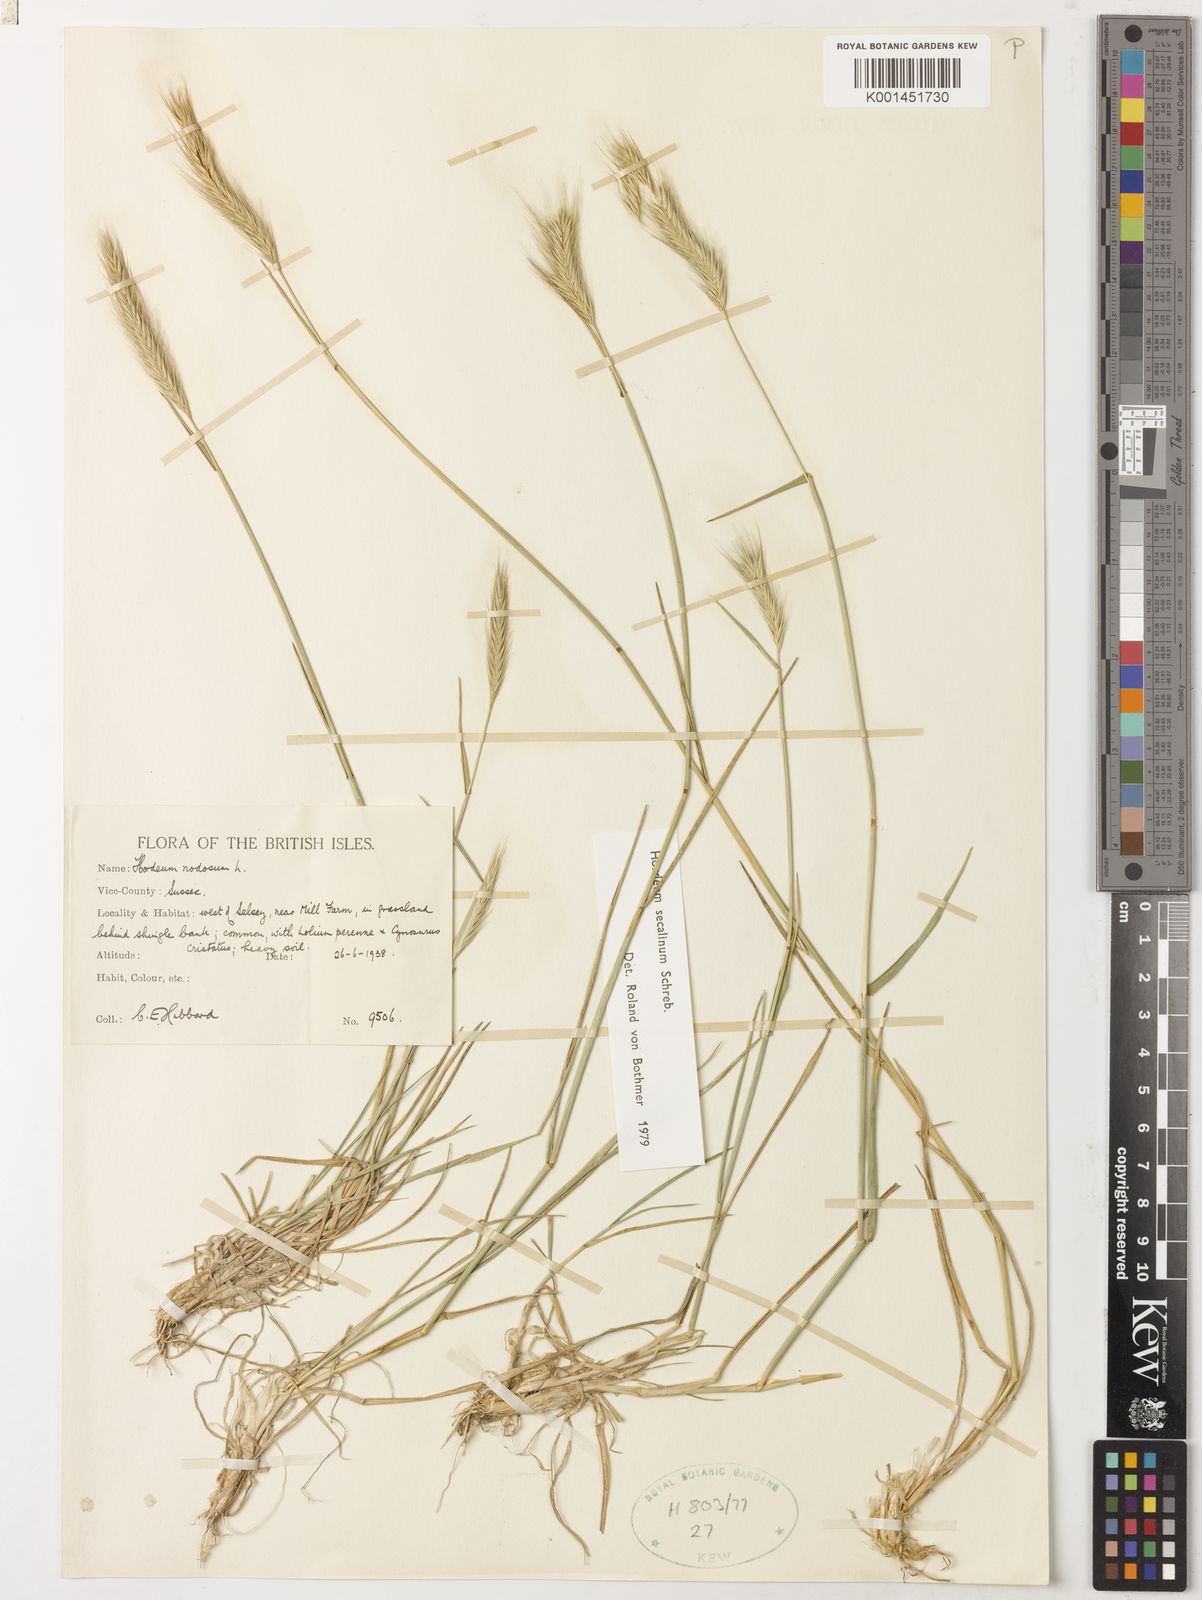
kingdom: Plantae
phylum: Tracheophyta
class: Liliopsida
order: Poales
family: Poaceae
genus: Hordeum
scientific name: Hordeum secalinum
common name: Meadow barley
